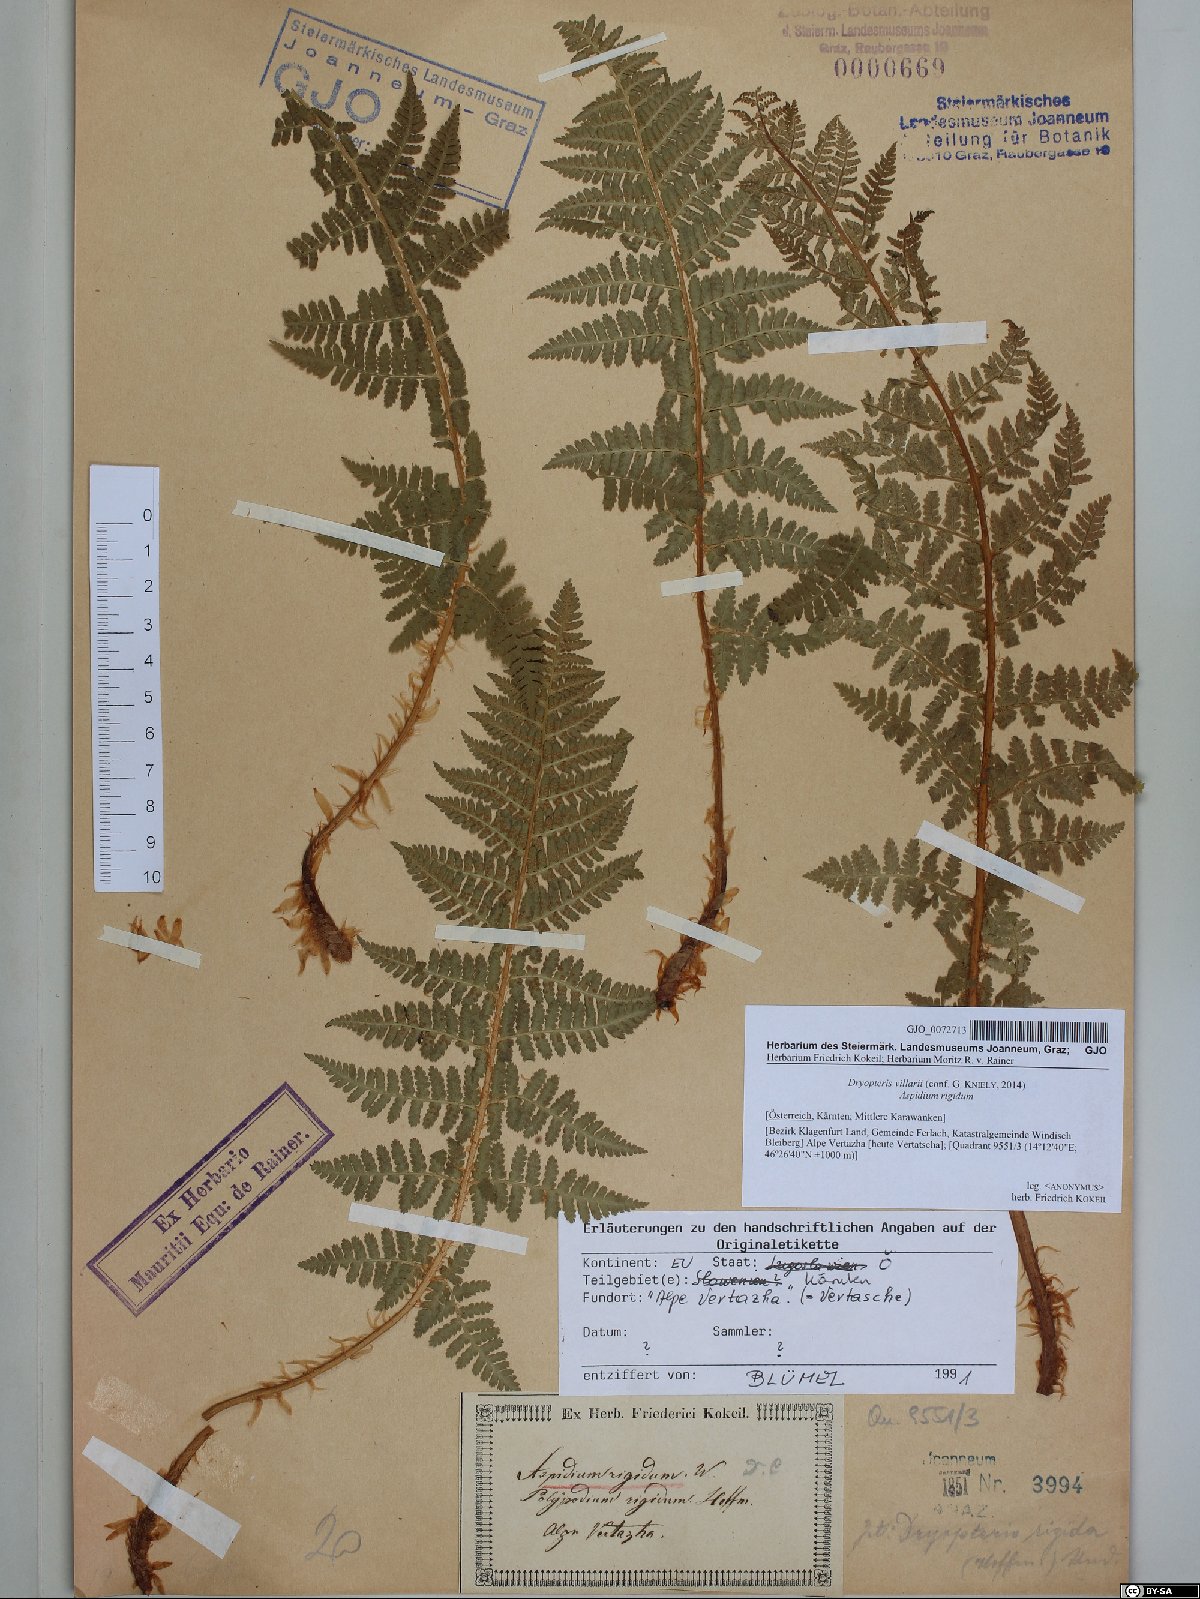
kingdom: Plantae
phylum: Tracheophyta
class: Polypodiopsida
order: Polypodiales
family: Dryopteridaceae
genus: Dryopteris
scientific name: Dryopteris villarii
